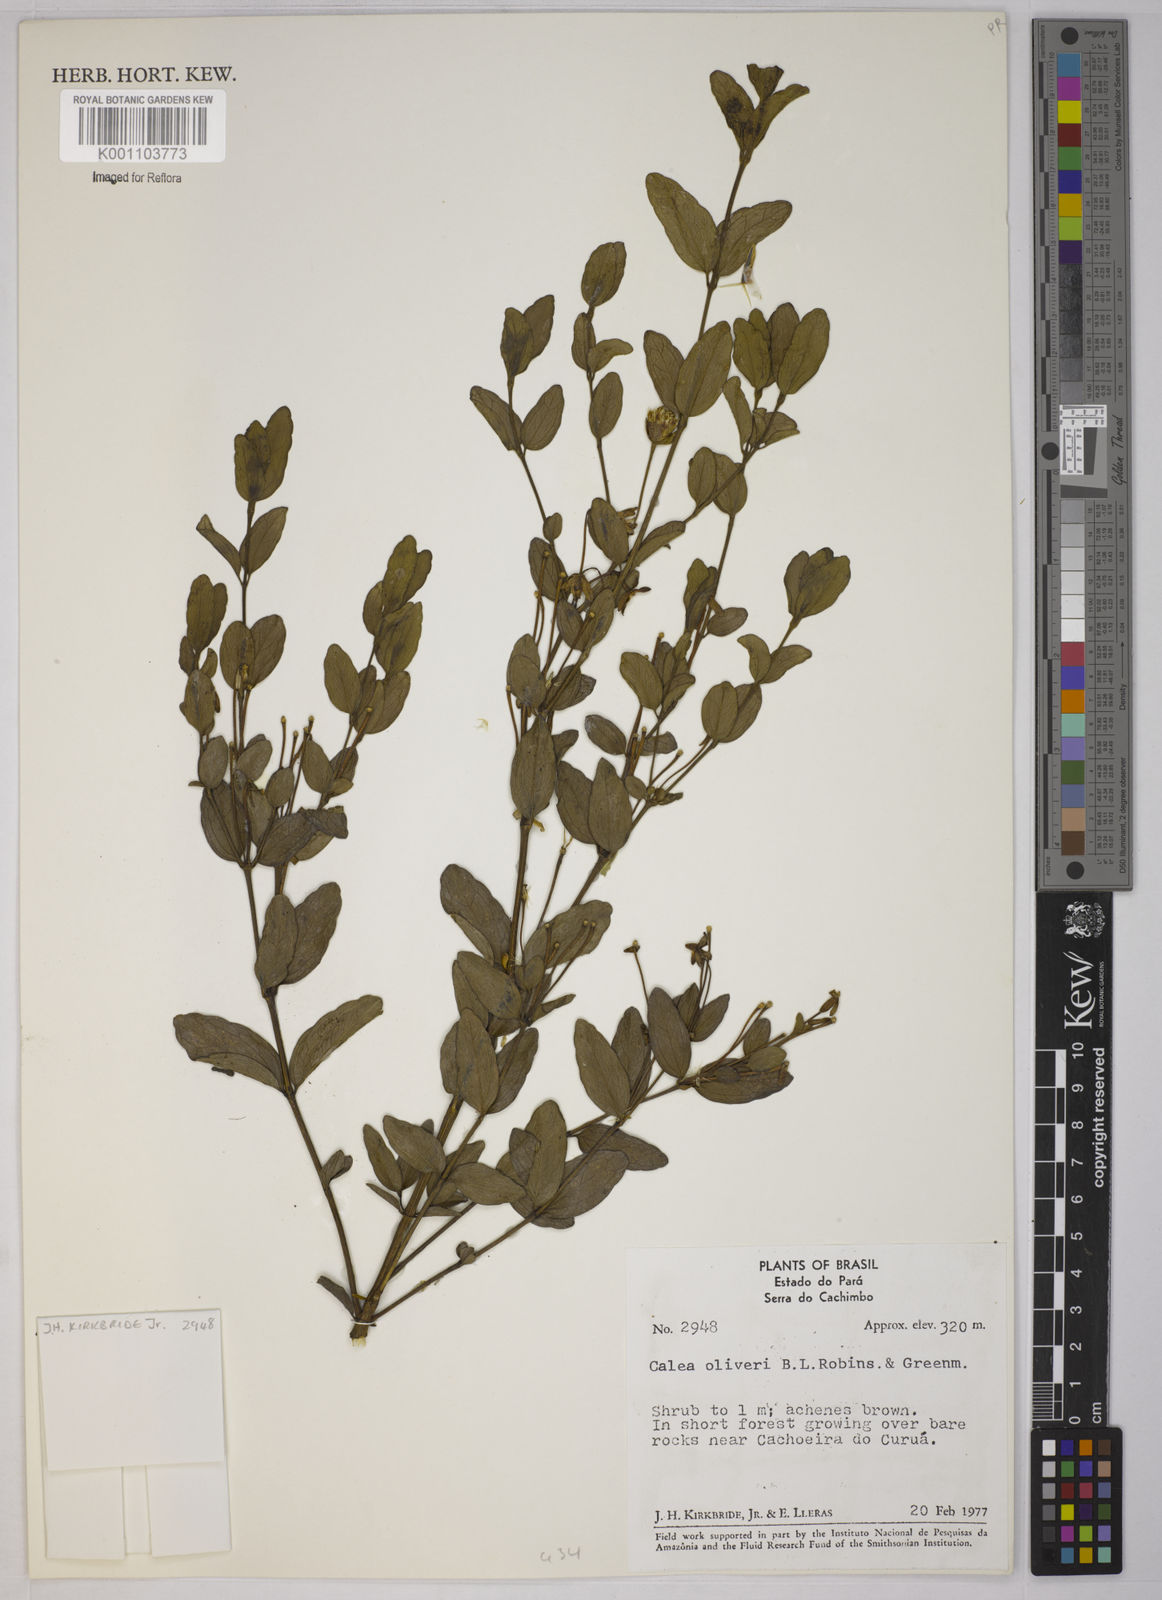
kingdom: Plantae
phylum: Tracheophyta
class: Magnoliopsida
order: Asterales
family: Asteraceae
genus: Calea
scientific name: Calea oliveri
